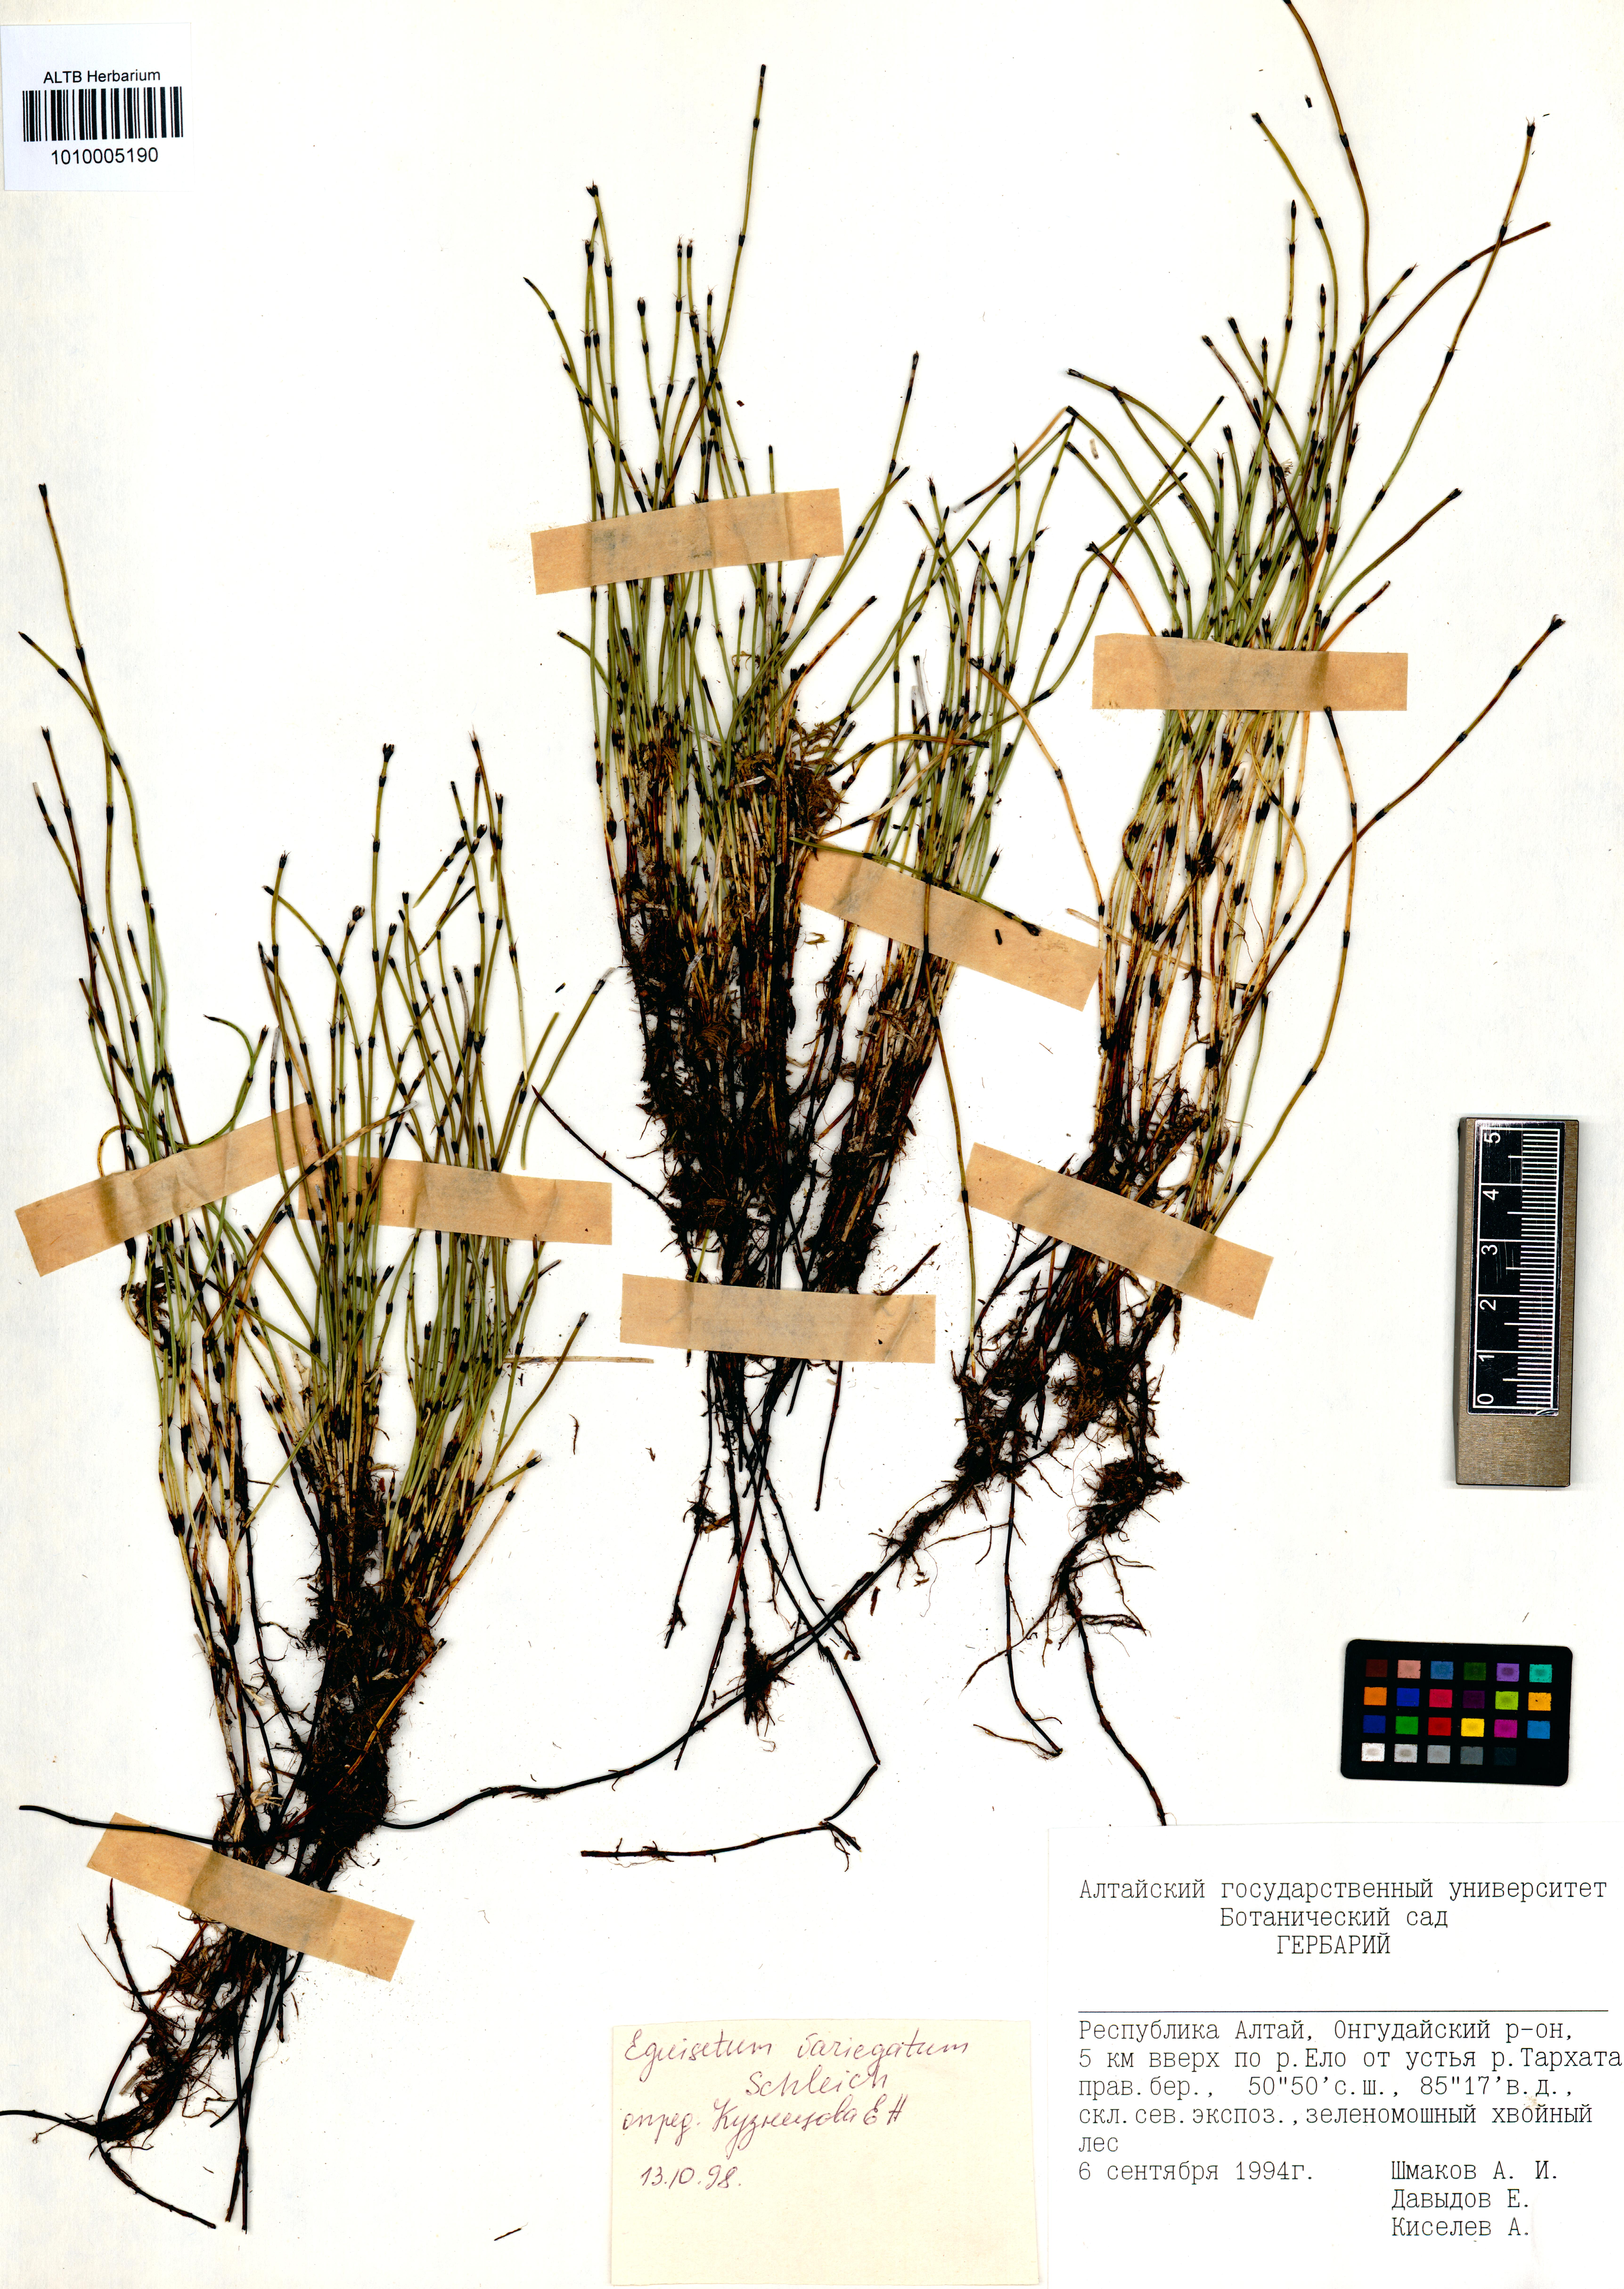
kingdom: Plantae
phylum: Tracheophyta
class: Polypodiopsida
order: Equisetales
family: Equisetaceae
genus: Equisetum
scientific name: Equisetum variegatum
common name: Variegated horsetail
